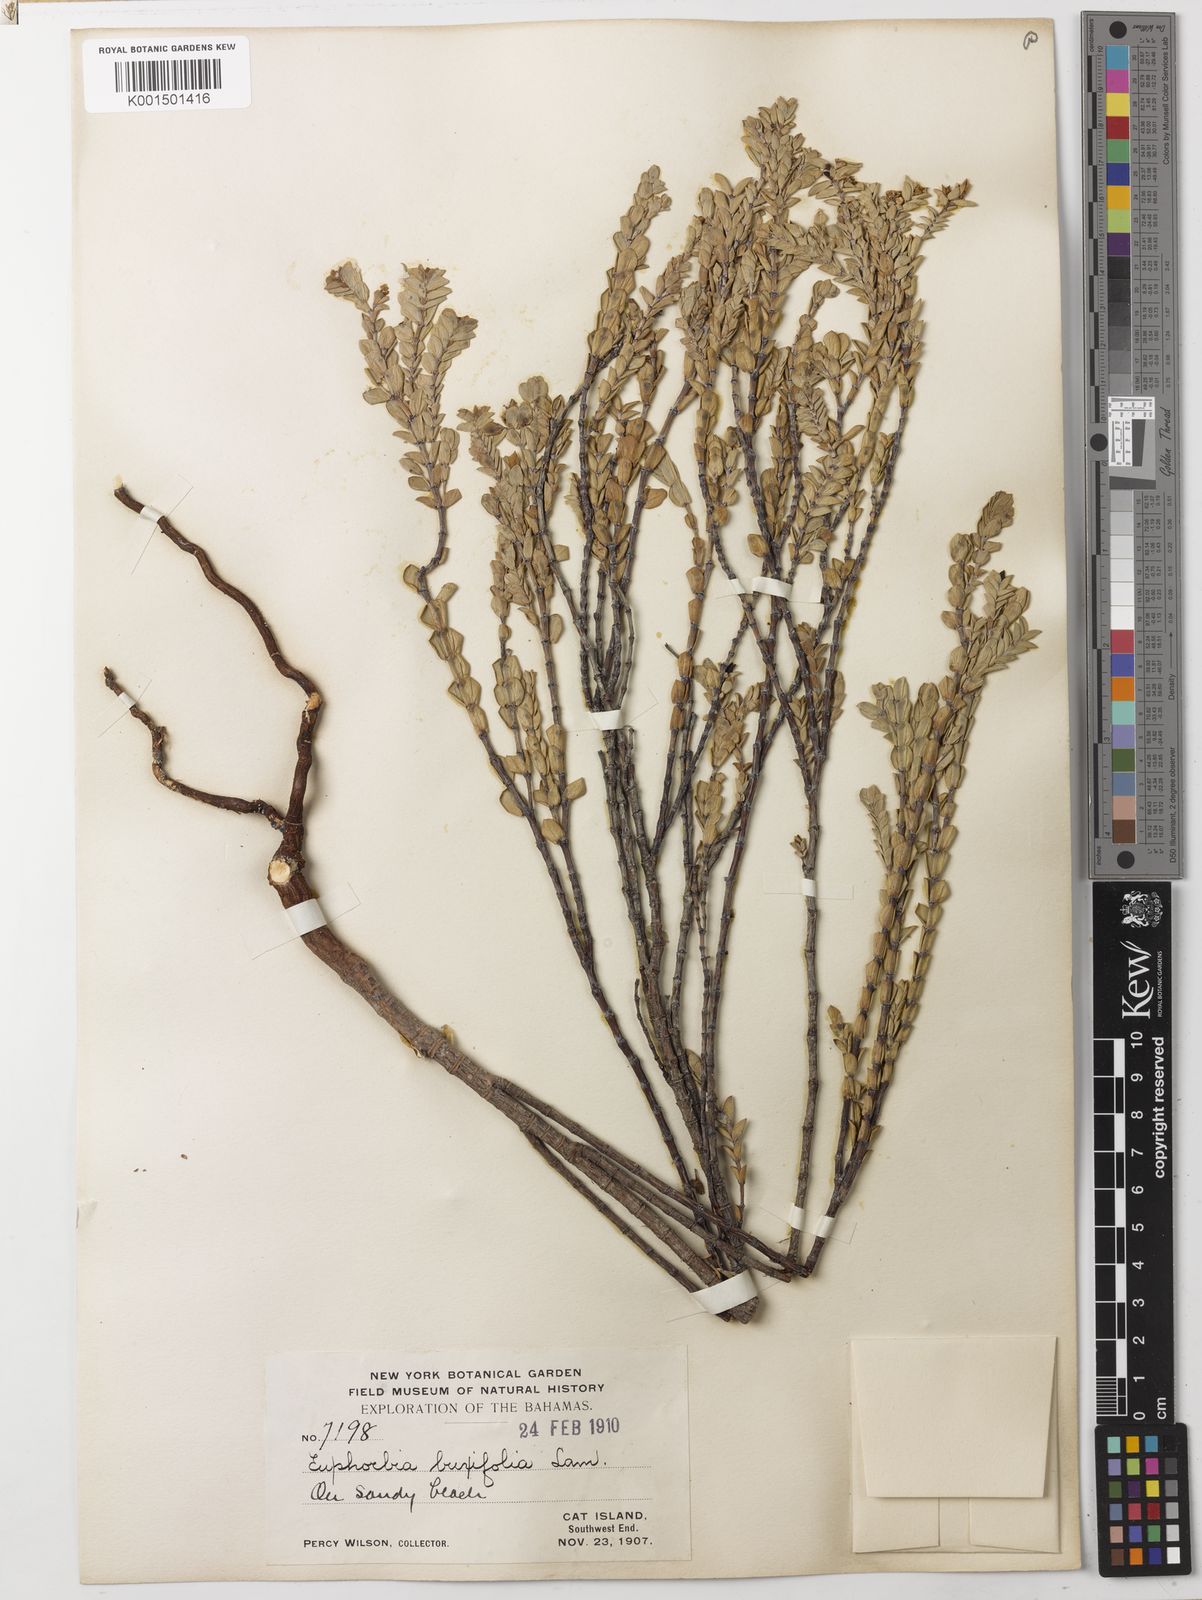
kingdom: Plantae
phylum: Tracheophyta
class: Magnoliopsida
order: Malpighiales
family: Euphorbiaceae
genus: Euphorbia
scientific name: Euphorbia mesembryanthemifolia
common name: Coastal beach sandmat
